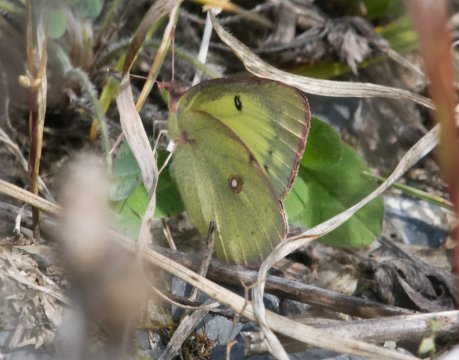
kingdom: Animalia
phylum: Arthropoda
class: Insecta
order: Lepidoptera
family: Pieridae
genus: Colias
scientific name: Colias philodice
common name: Clouded Sulphur
